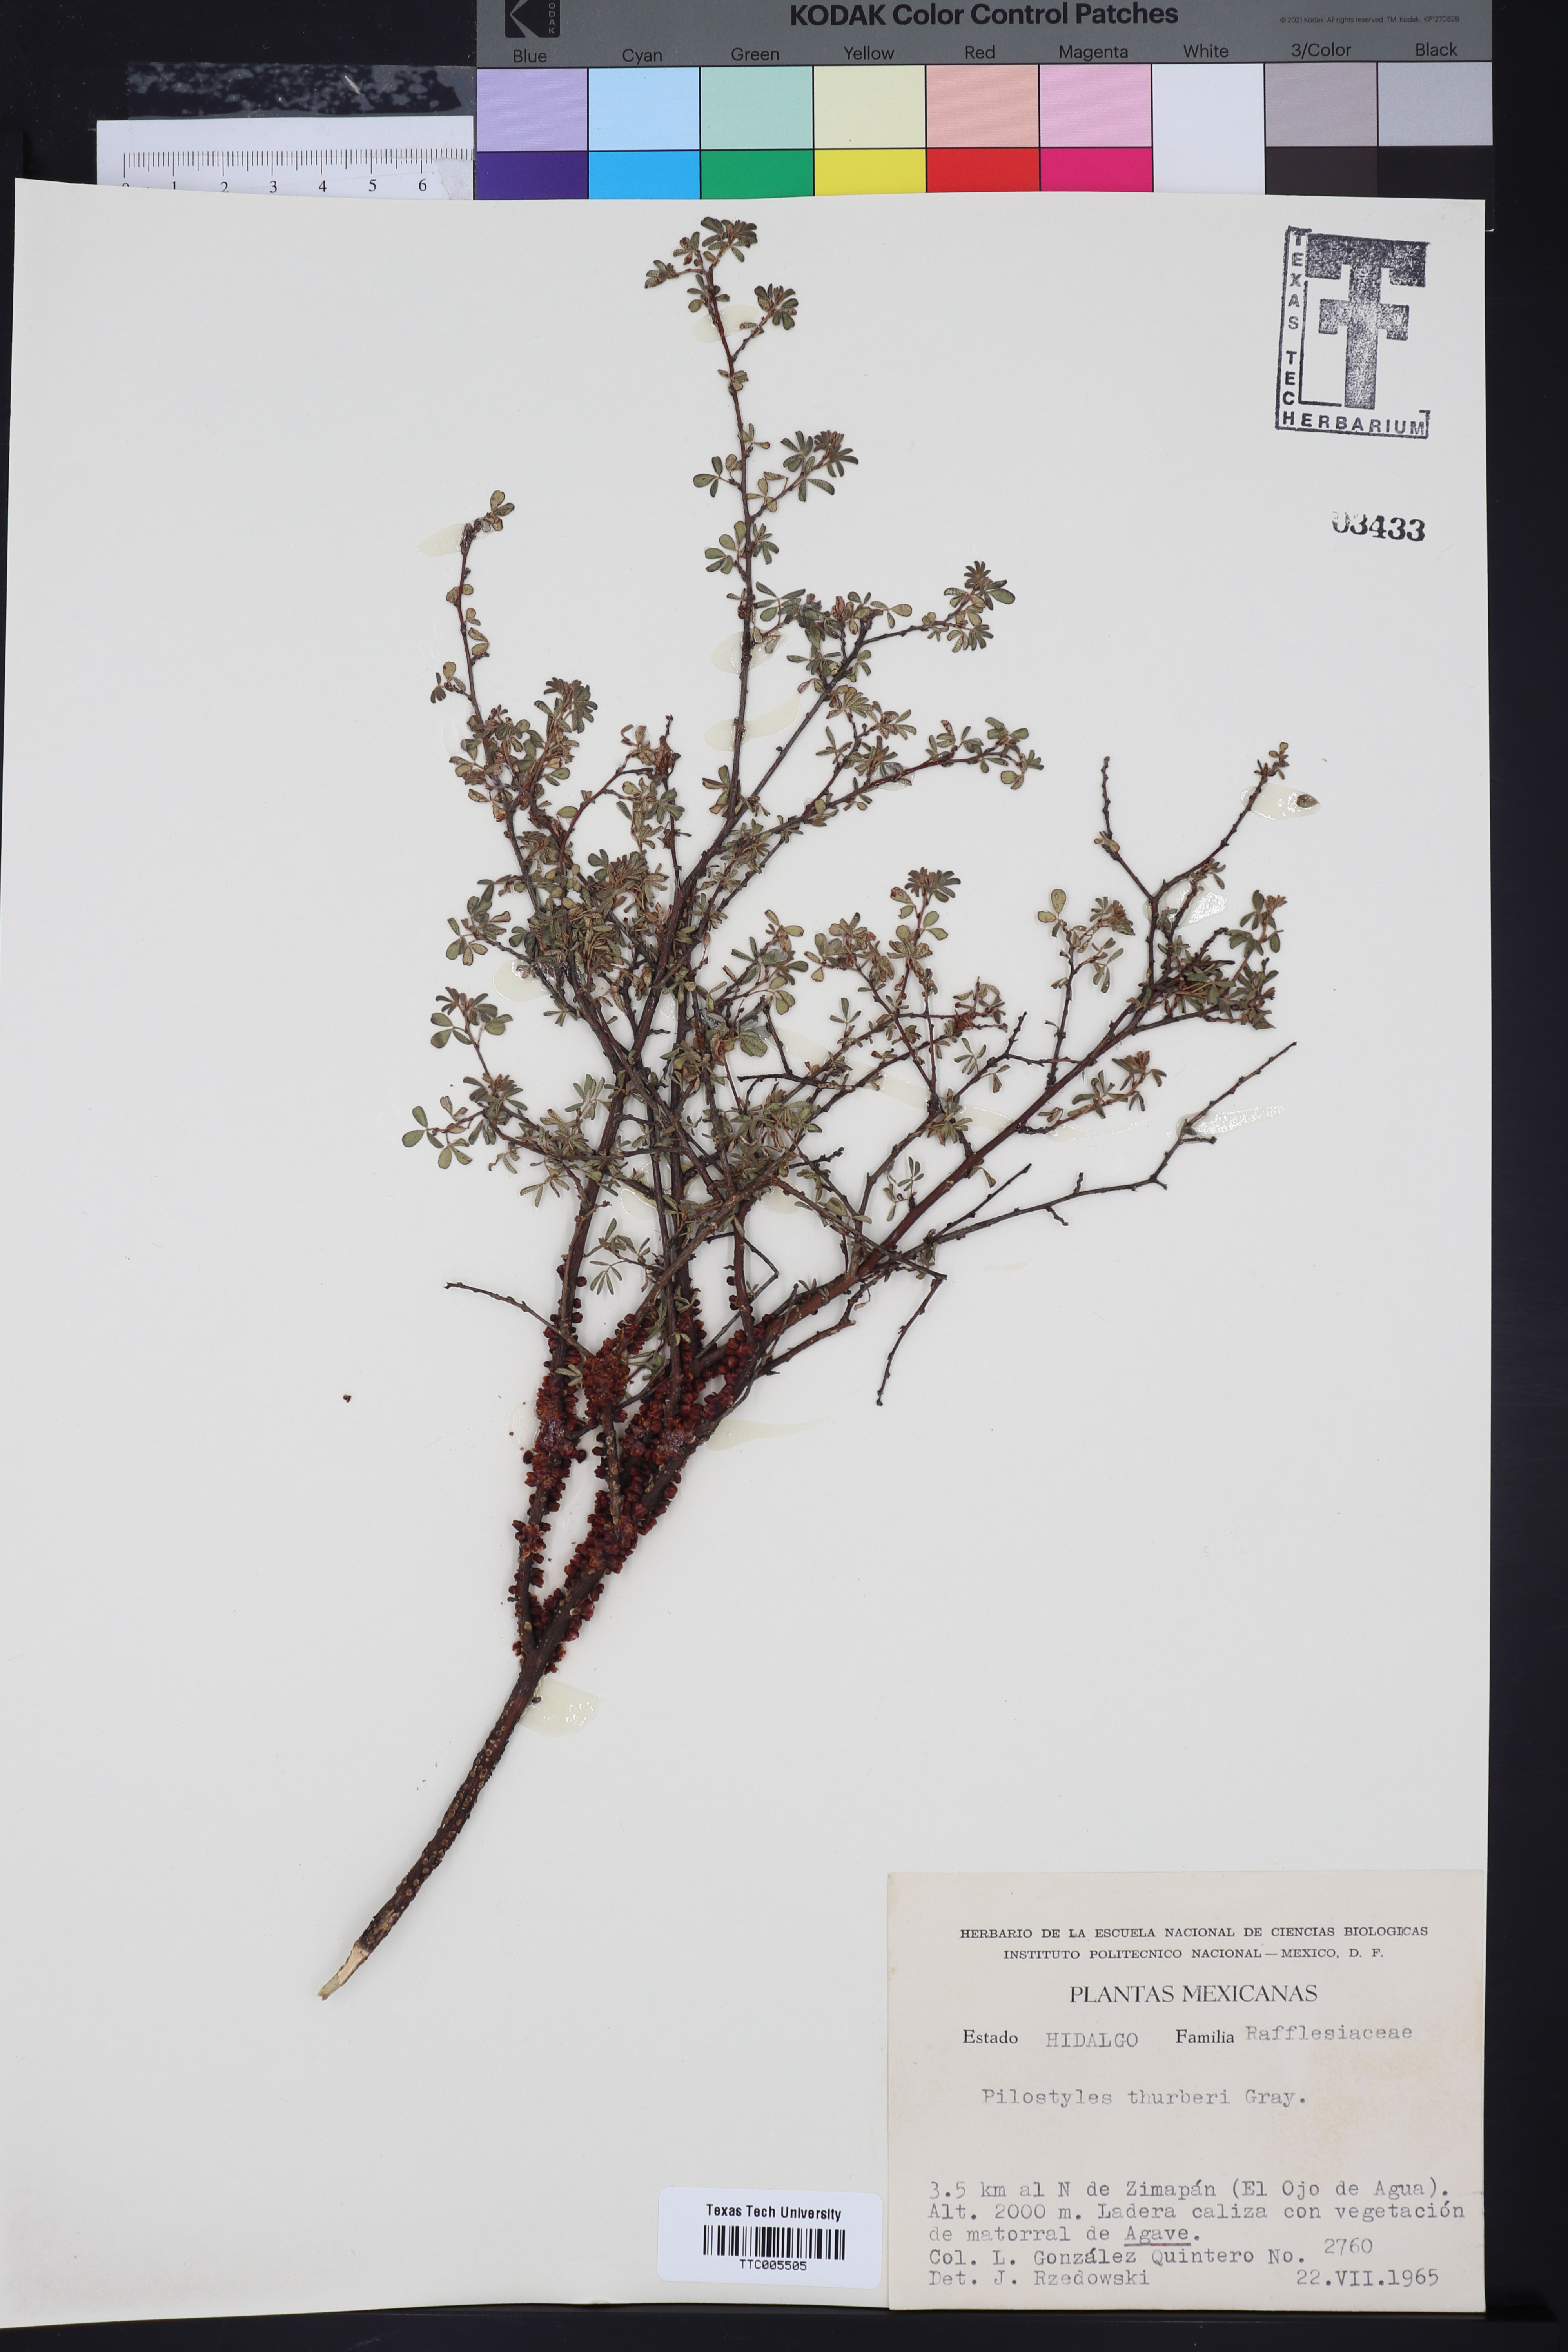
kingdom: Plantae
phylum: Tracheophyta
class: Magnoliopsida
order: Cucurbitales
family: Apodanthaceae
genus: Pilostyles
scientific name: Pilostyles thurberi
